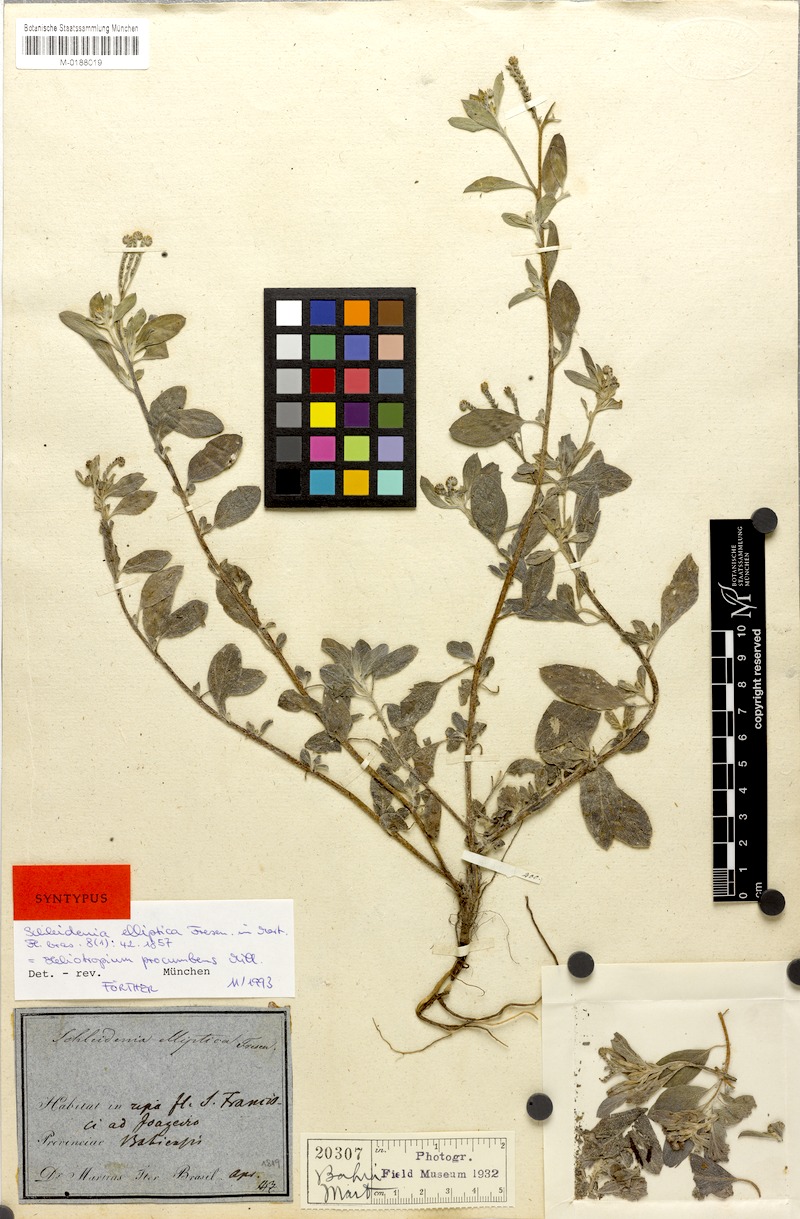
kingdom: Plantae
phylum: Tracheophyta
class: Magnoliopsida
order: Boraginales
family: Heliotropiaceae
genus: Euploca
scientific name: Euploca procumbens
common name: Fourspike heliotrope
